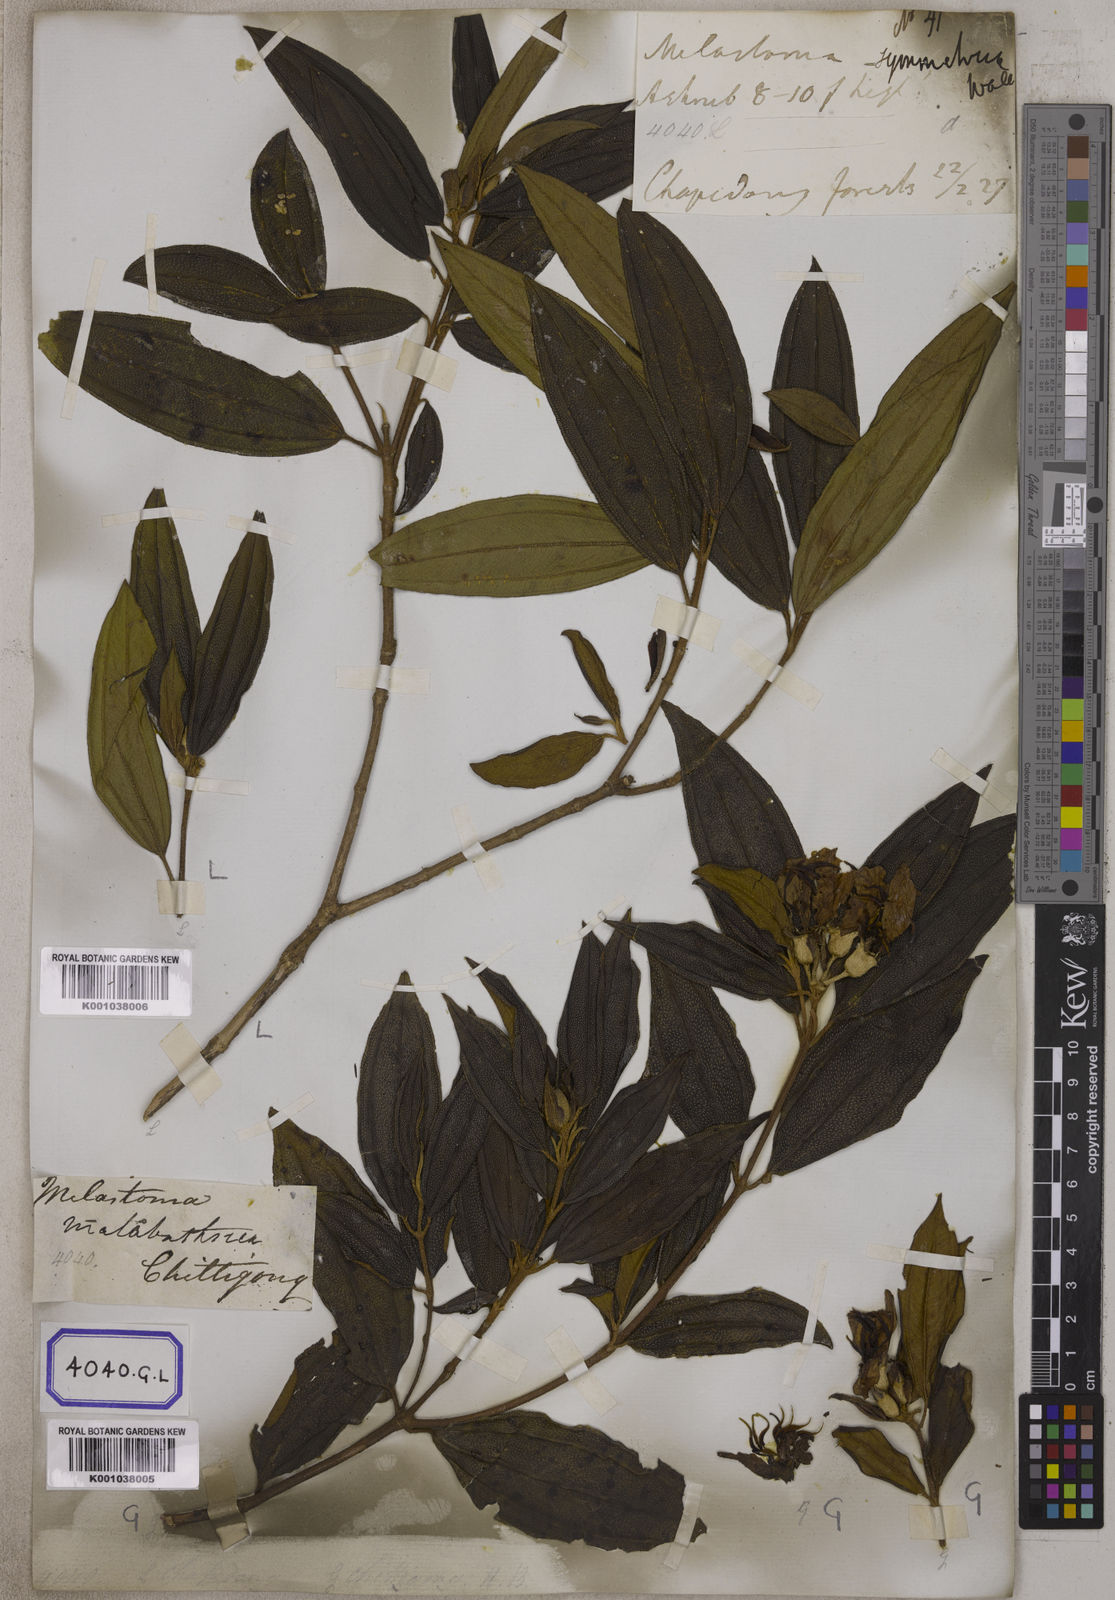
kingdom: Plantae
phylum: Tracheophyta
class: Magnoliopsida
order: Myrtales
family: Melastomataceae
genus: Melastoma
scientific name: Melastoma malabathricum
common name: Indian-rhododendron
